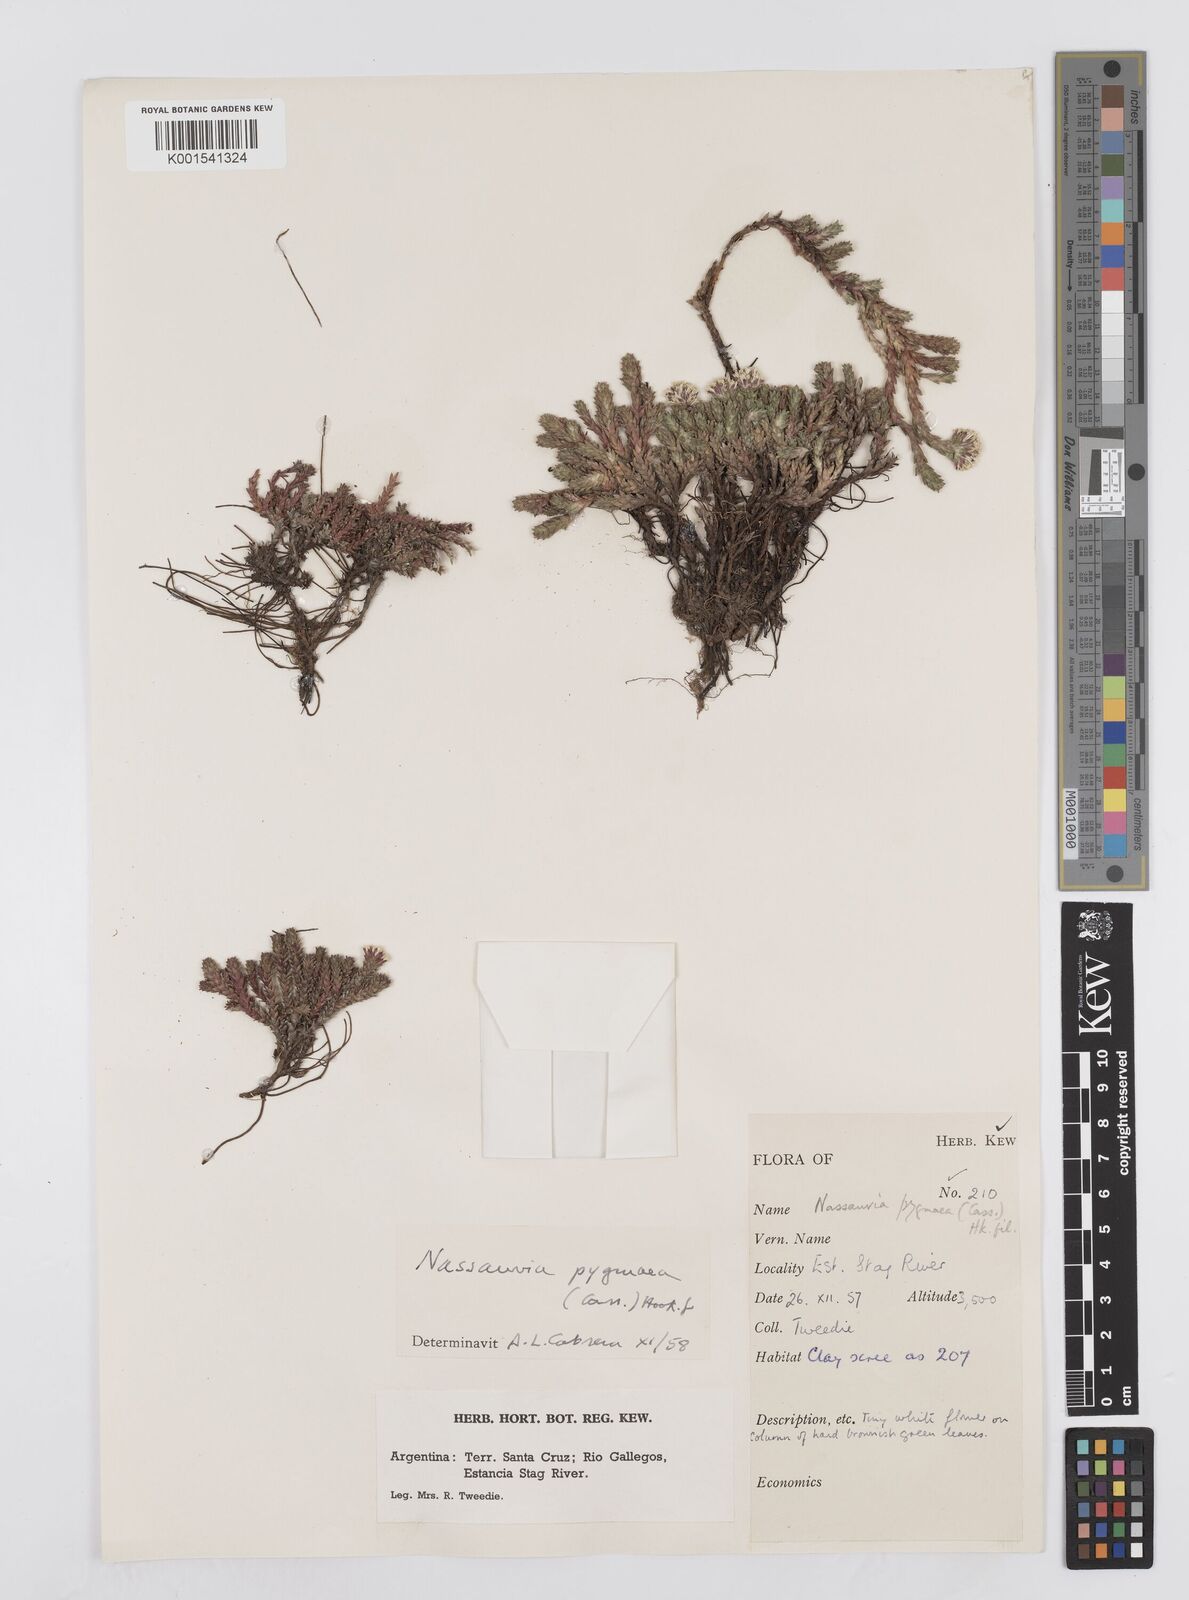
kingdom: Plantae
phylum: Tracheophyta
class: Magnoliopsida
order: Asterales
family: Asteraceae
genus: Nassauvia
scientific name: Nassauvia pygmaea
